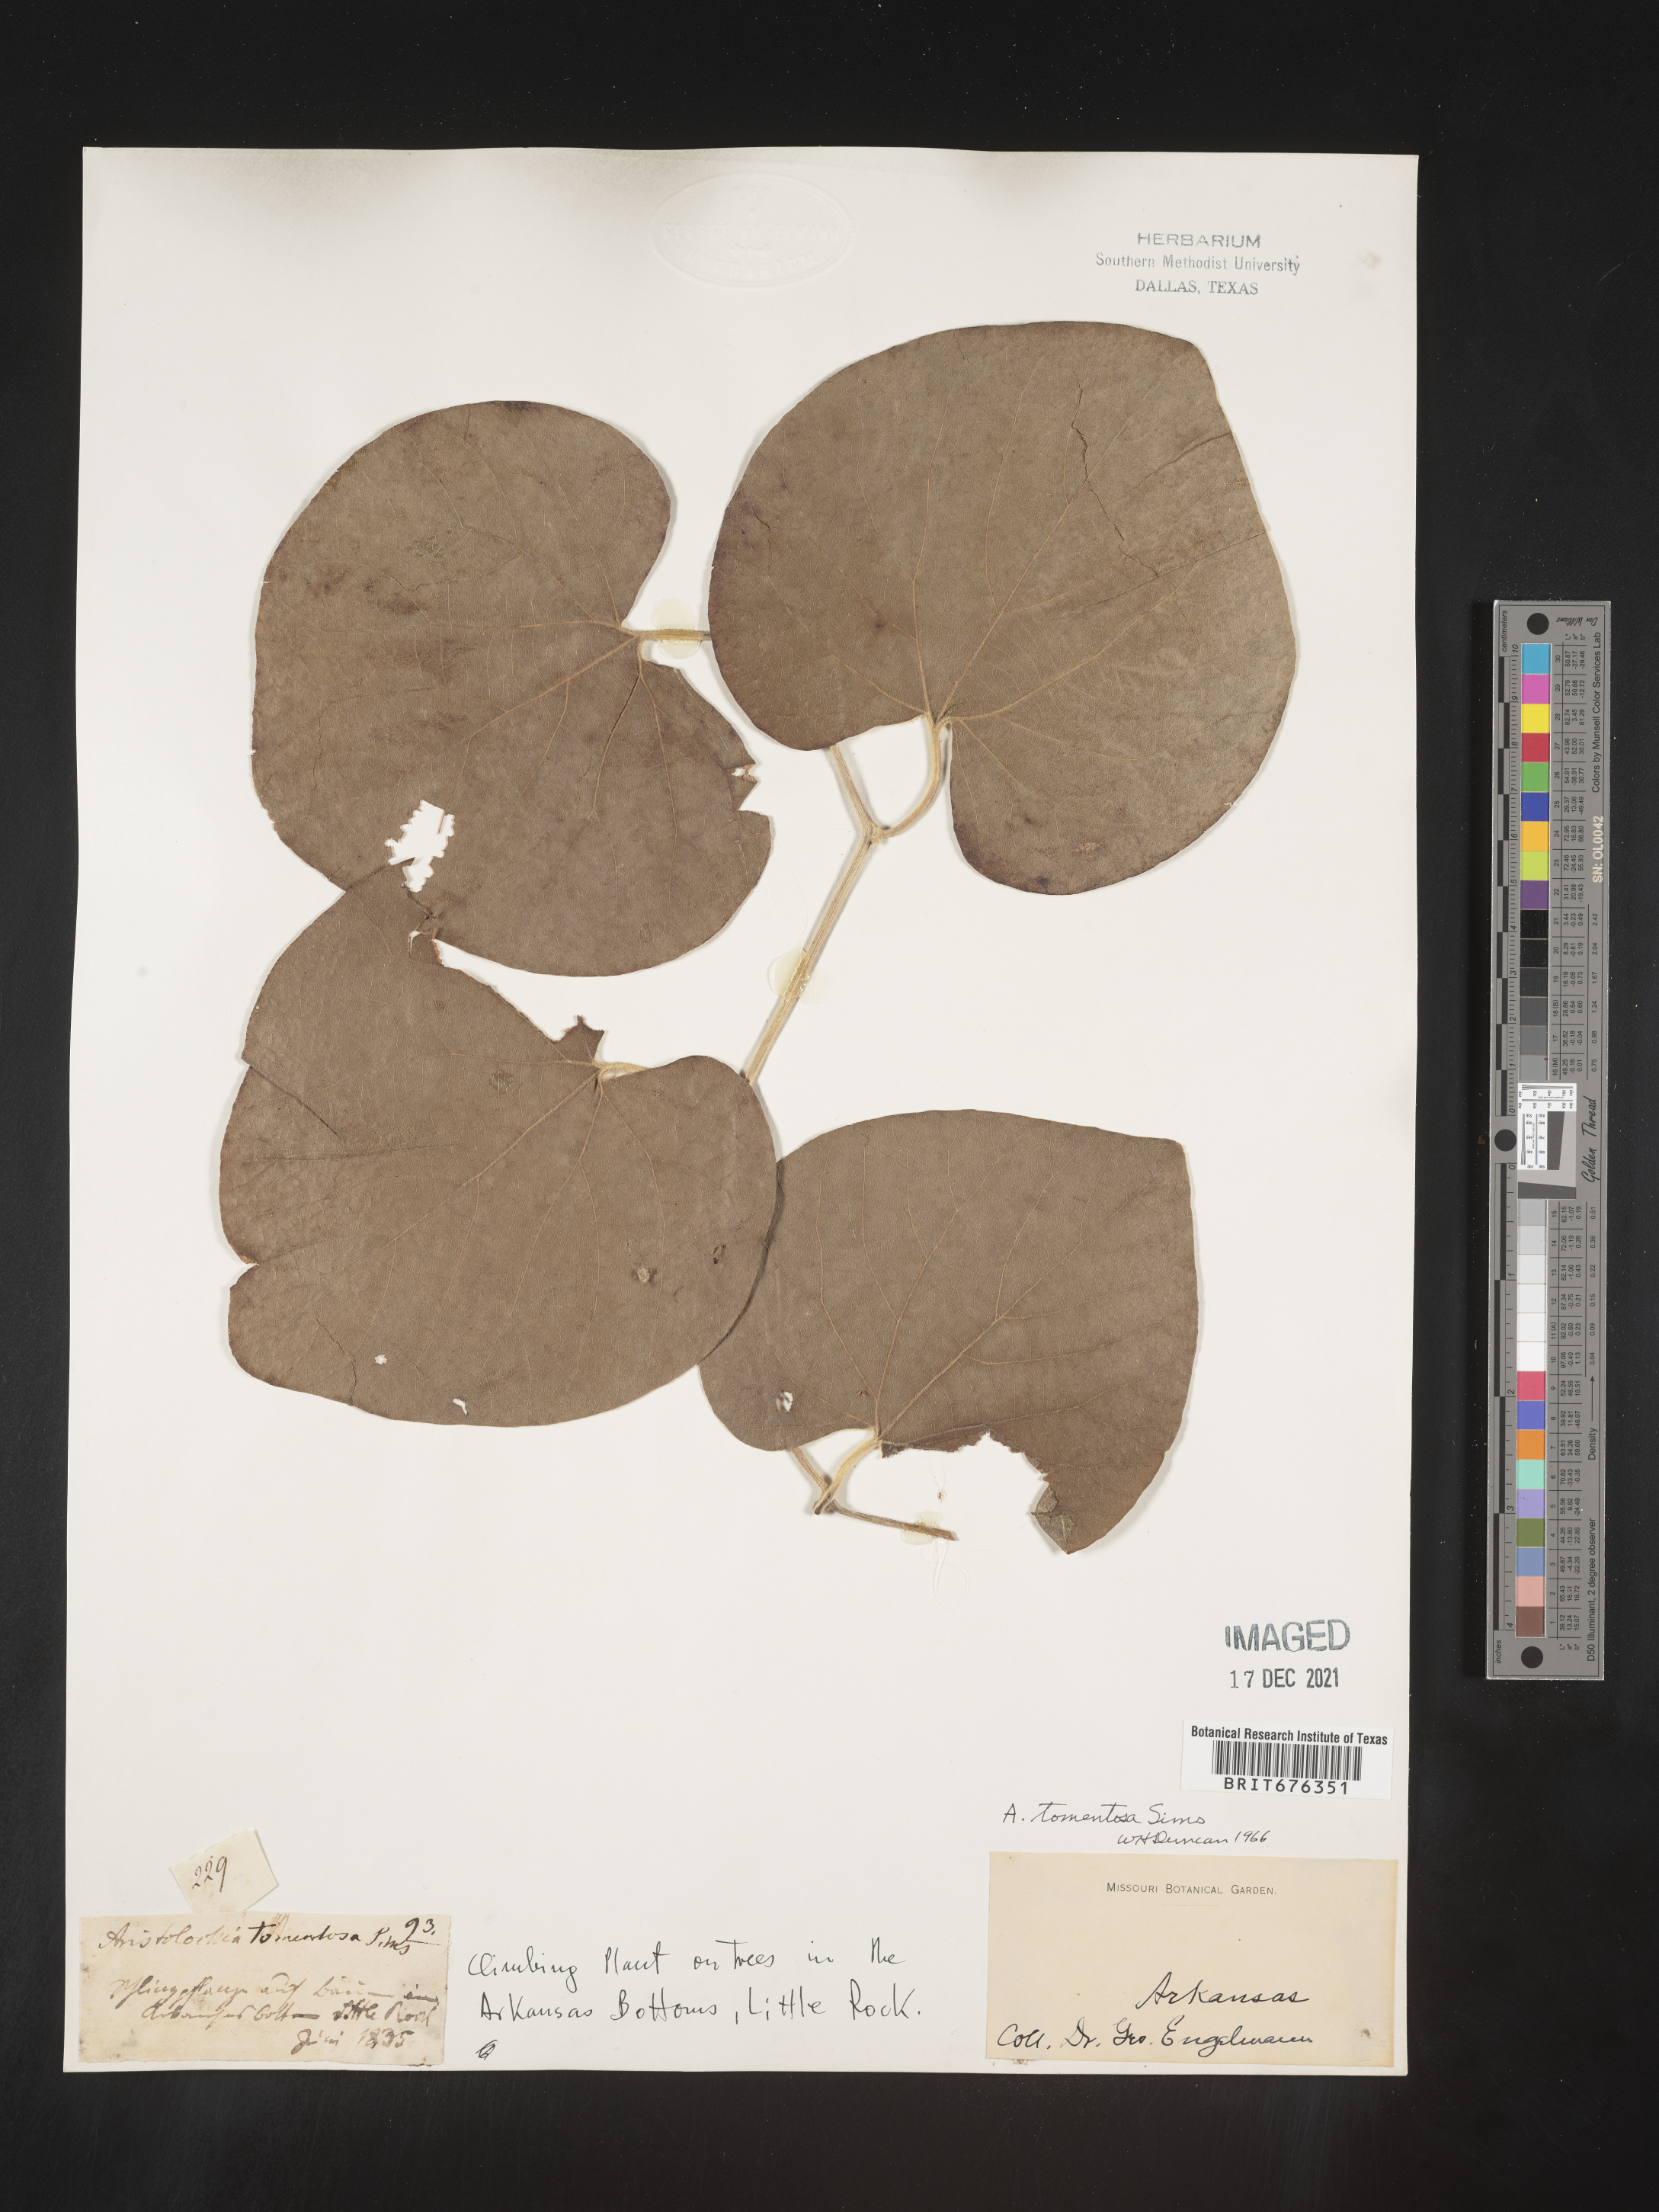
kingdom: Plantae
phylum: Tracheophyta
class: Magnoliopsida
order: Piperales
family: Aristolochiaceae
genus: Isotrema
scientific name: Isotrema tomentosum
